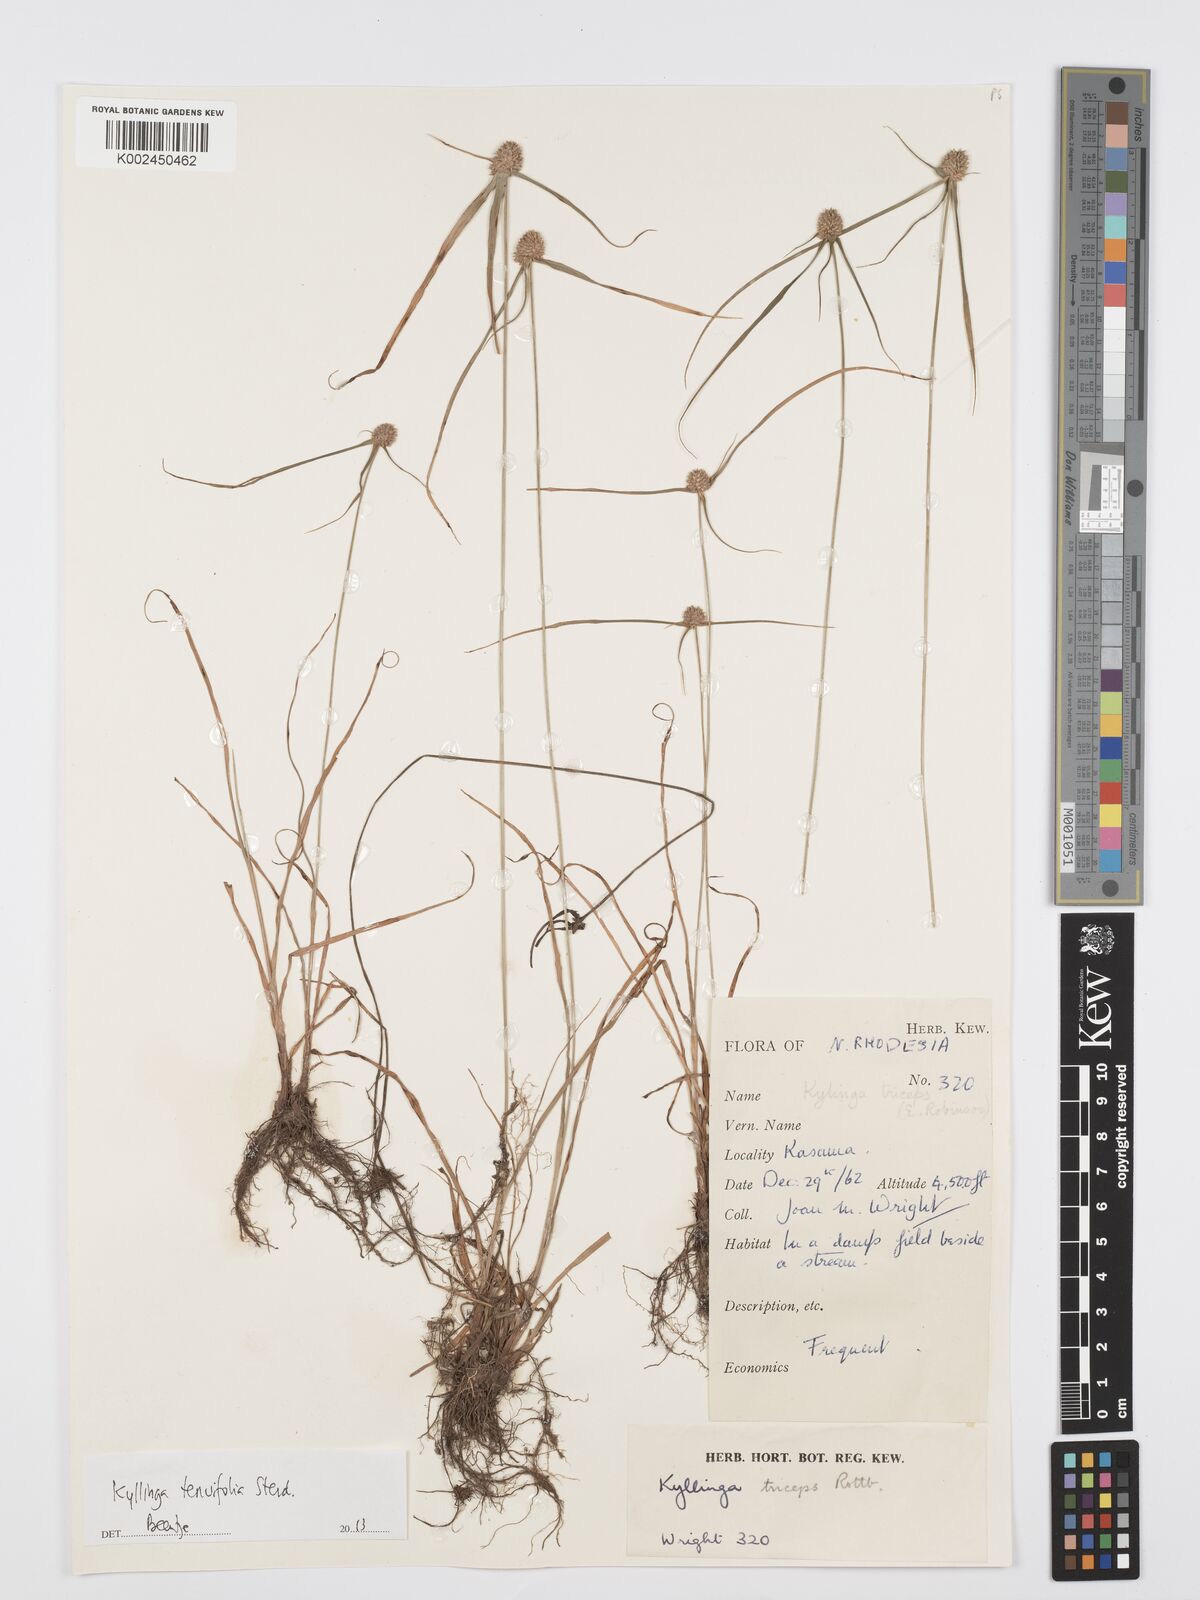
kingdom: Plantae
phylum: Tracheophyta
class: Liliopsida
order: Poales
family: Cyperaceae
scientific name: Cyperaceae
